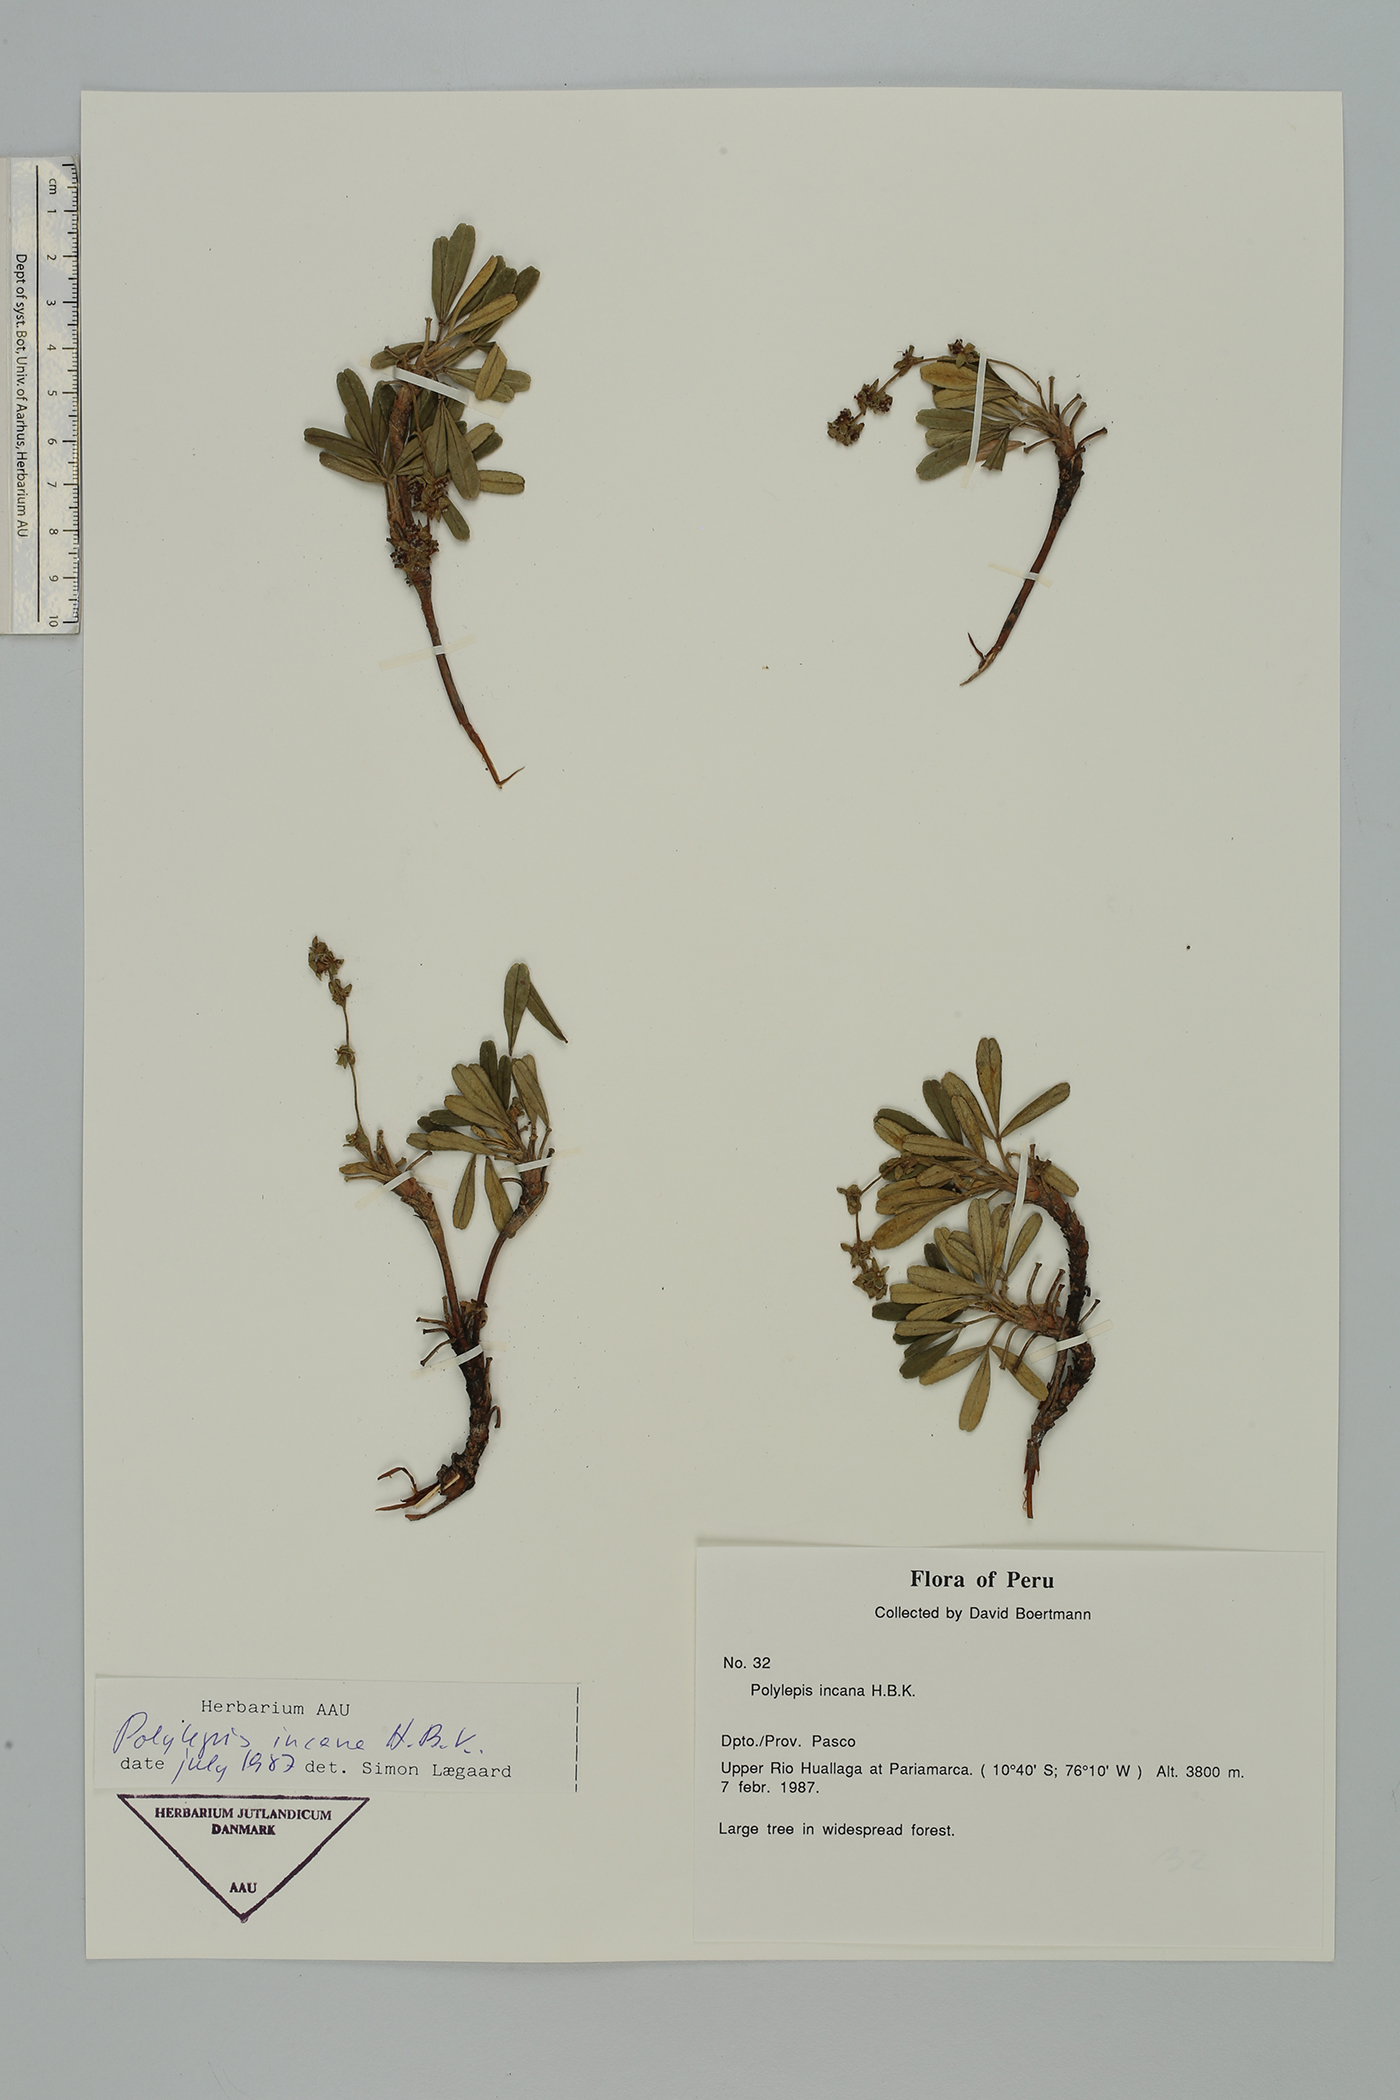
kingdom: Plantae
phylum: Tracheophyta
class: Magnoliopsida
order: Rosales
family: Rosaceae
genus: Polylepis
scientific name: Polylepis incana
